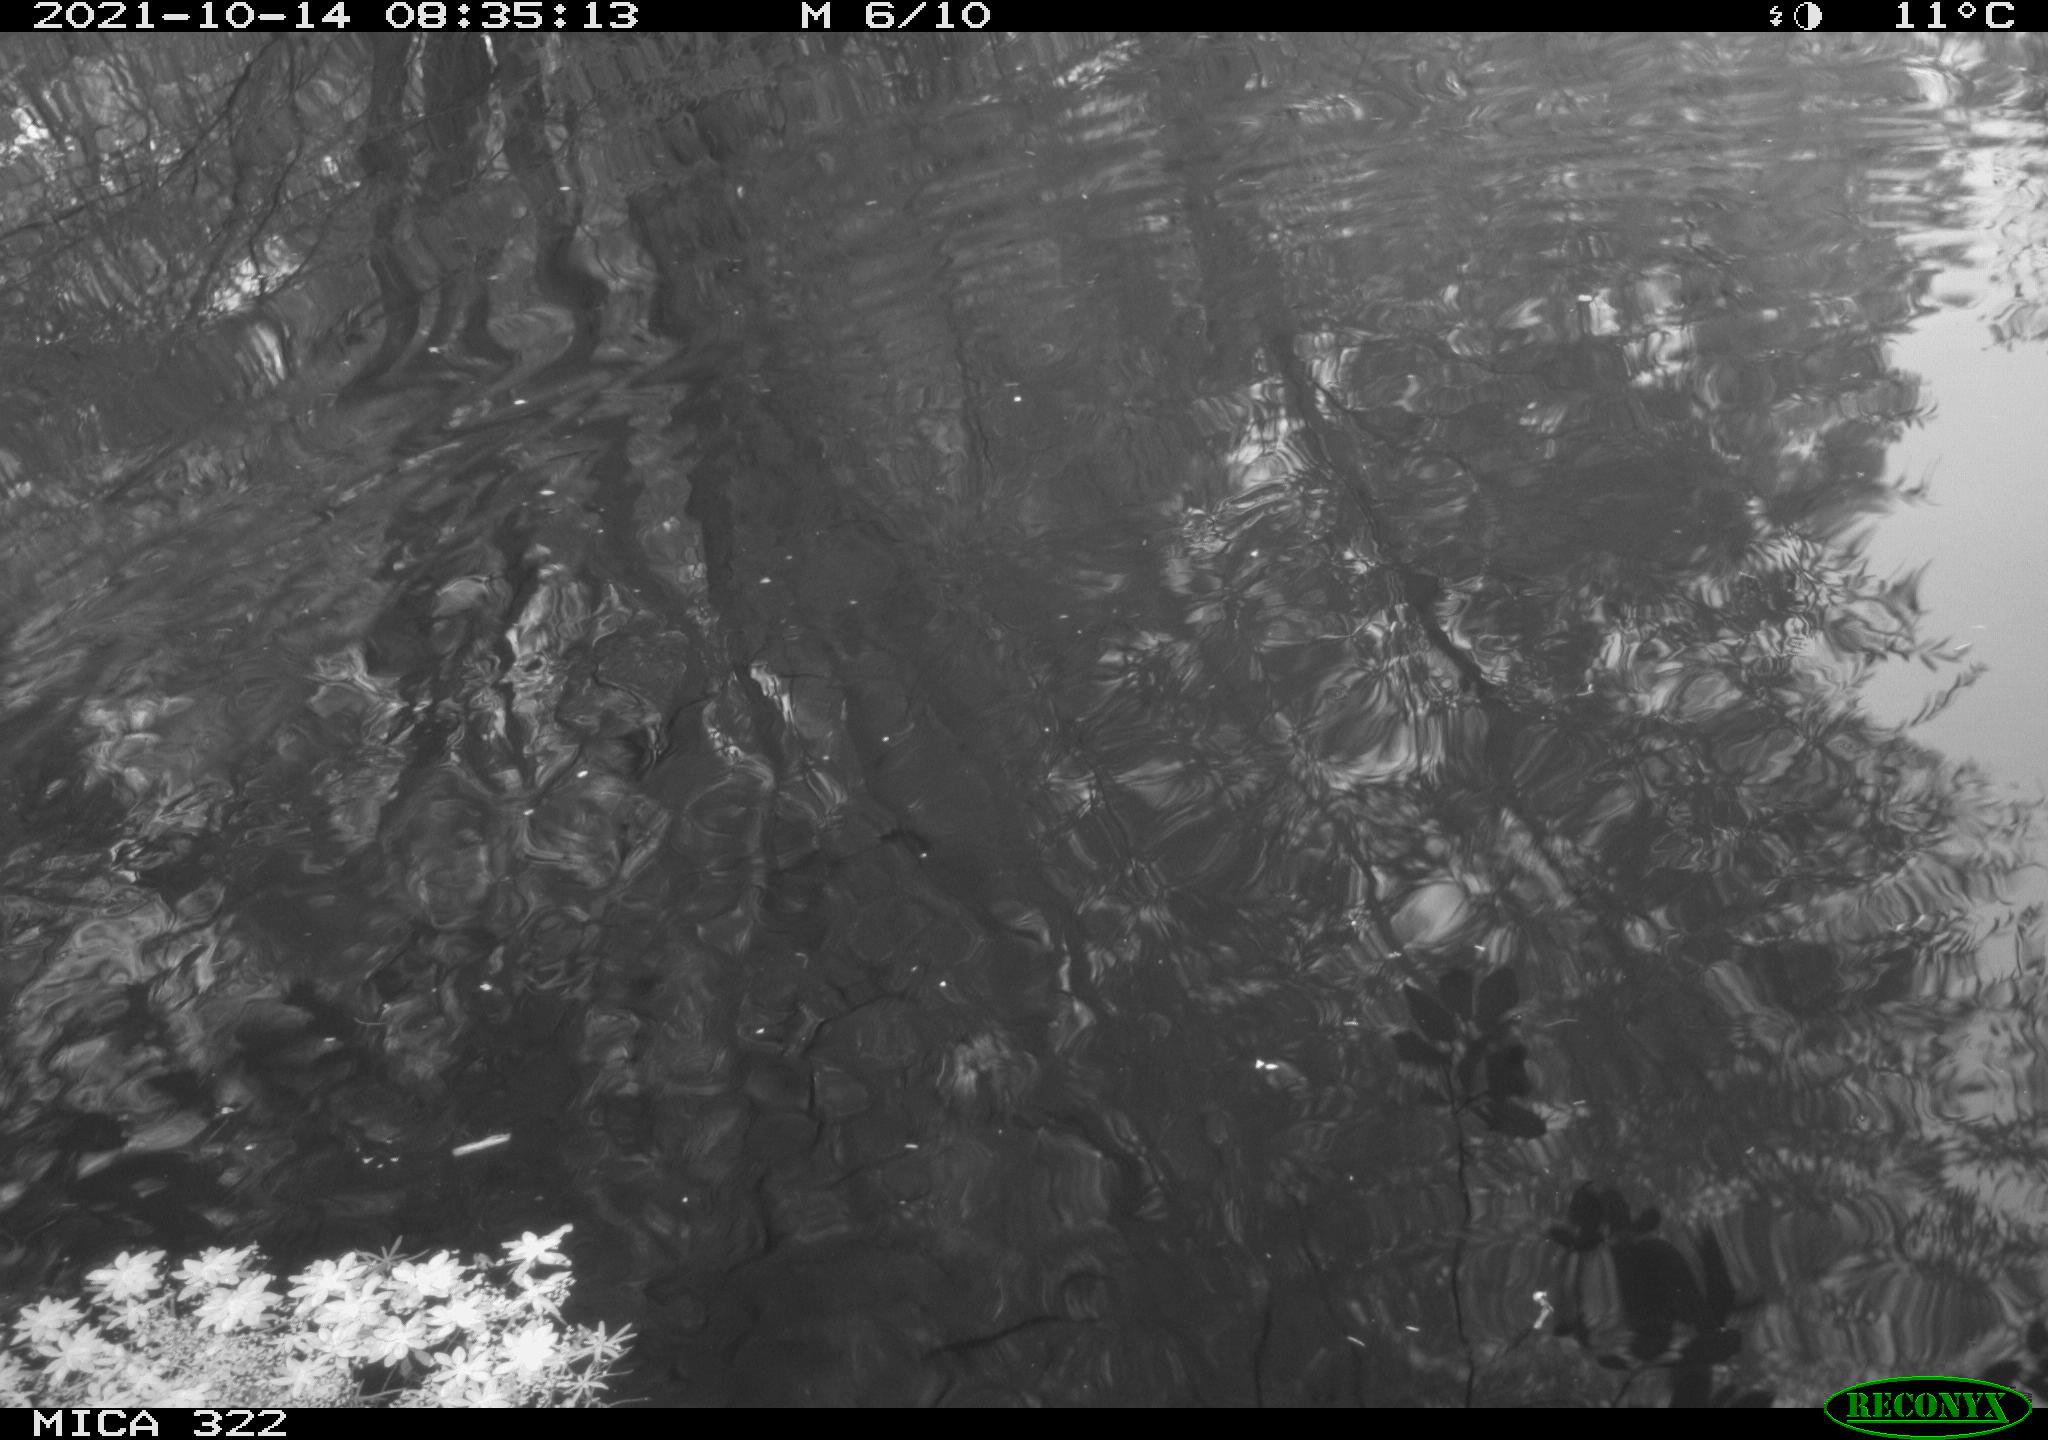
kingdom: Animalia
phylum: Chordata
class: Aves
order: Gruiformes
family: Rallidae
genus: Gallinula
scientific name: Gallinula chloropus
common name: Common moorhen
